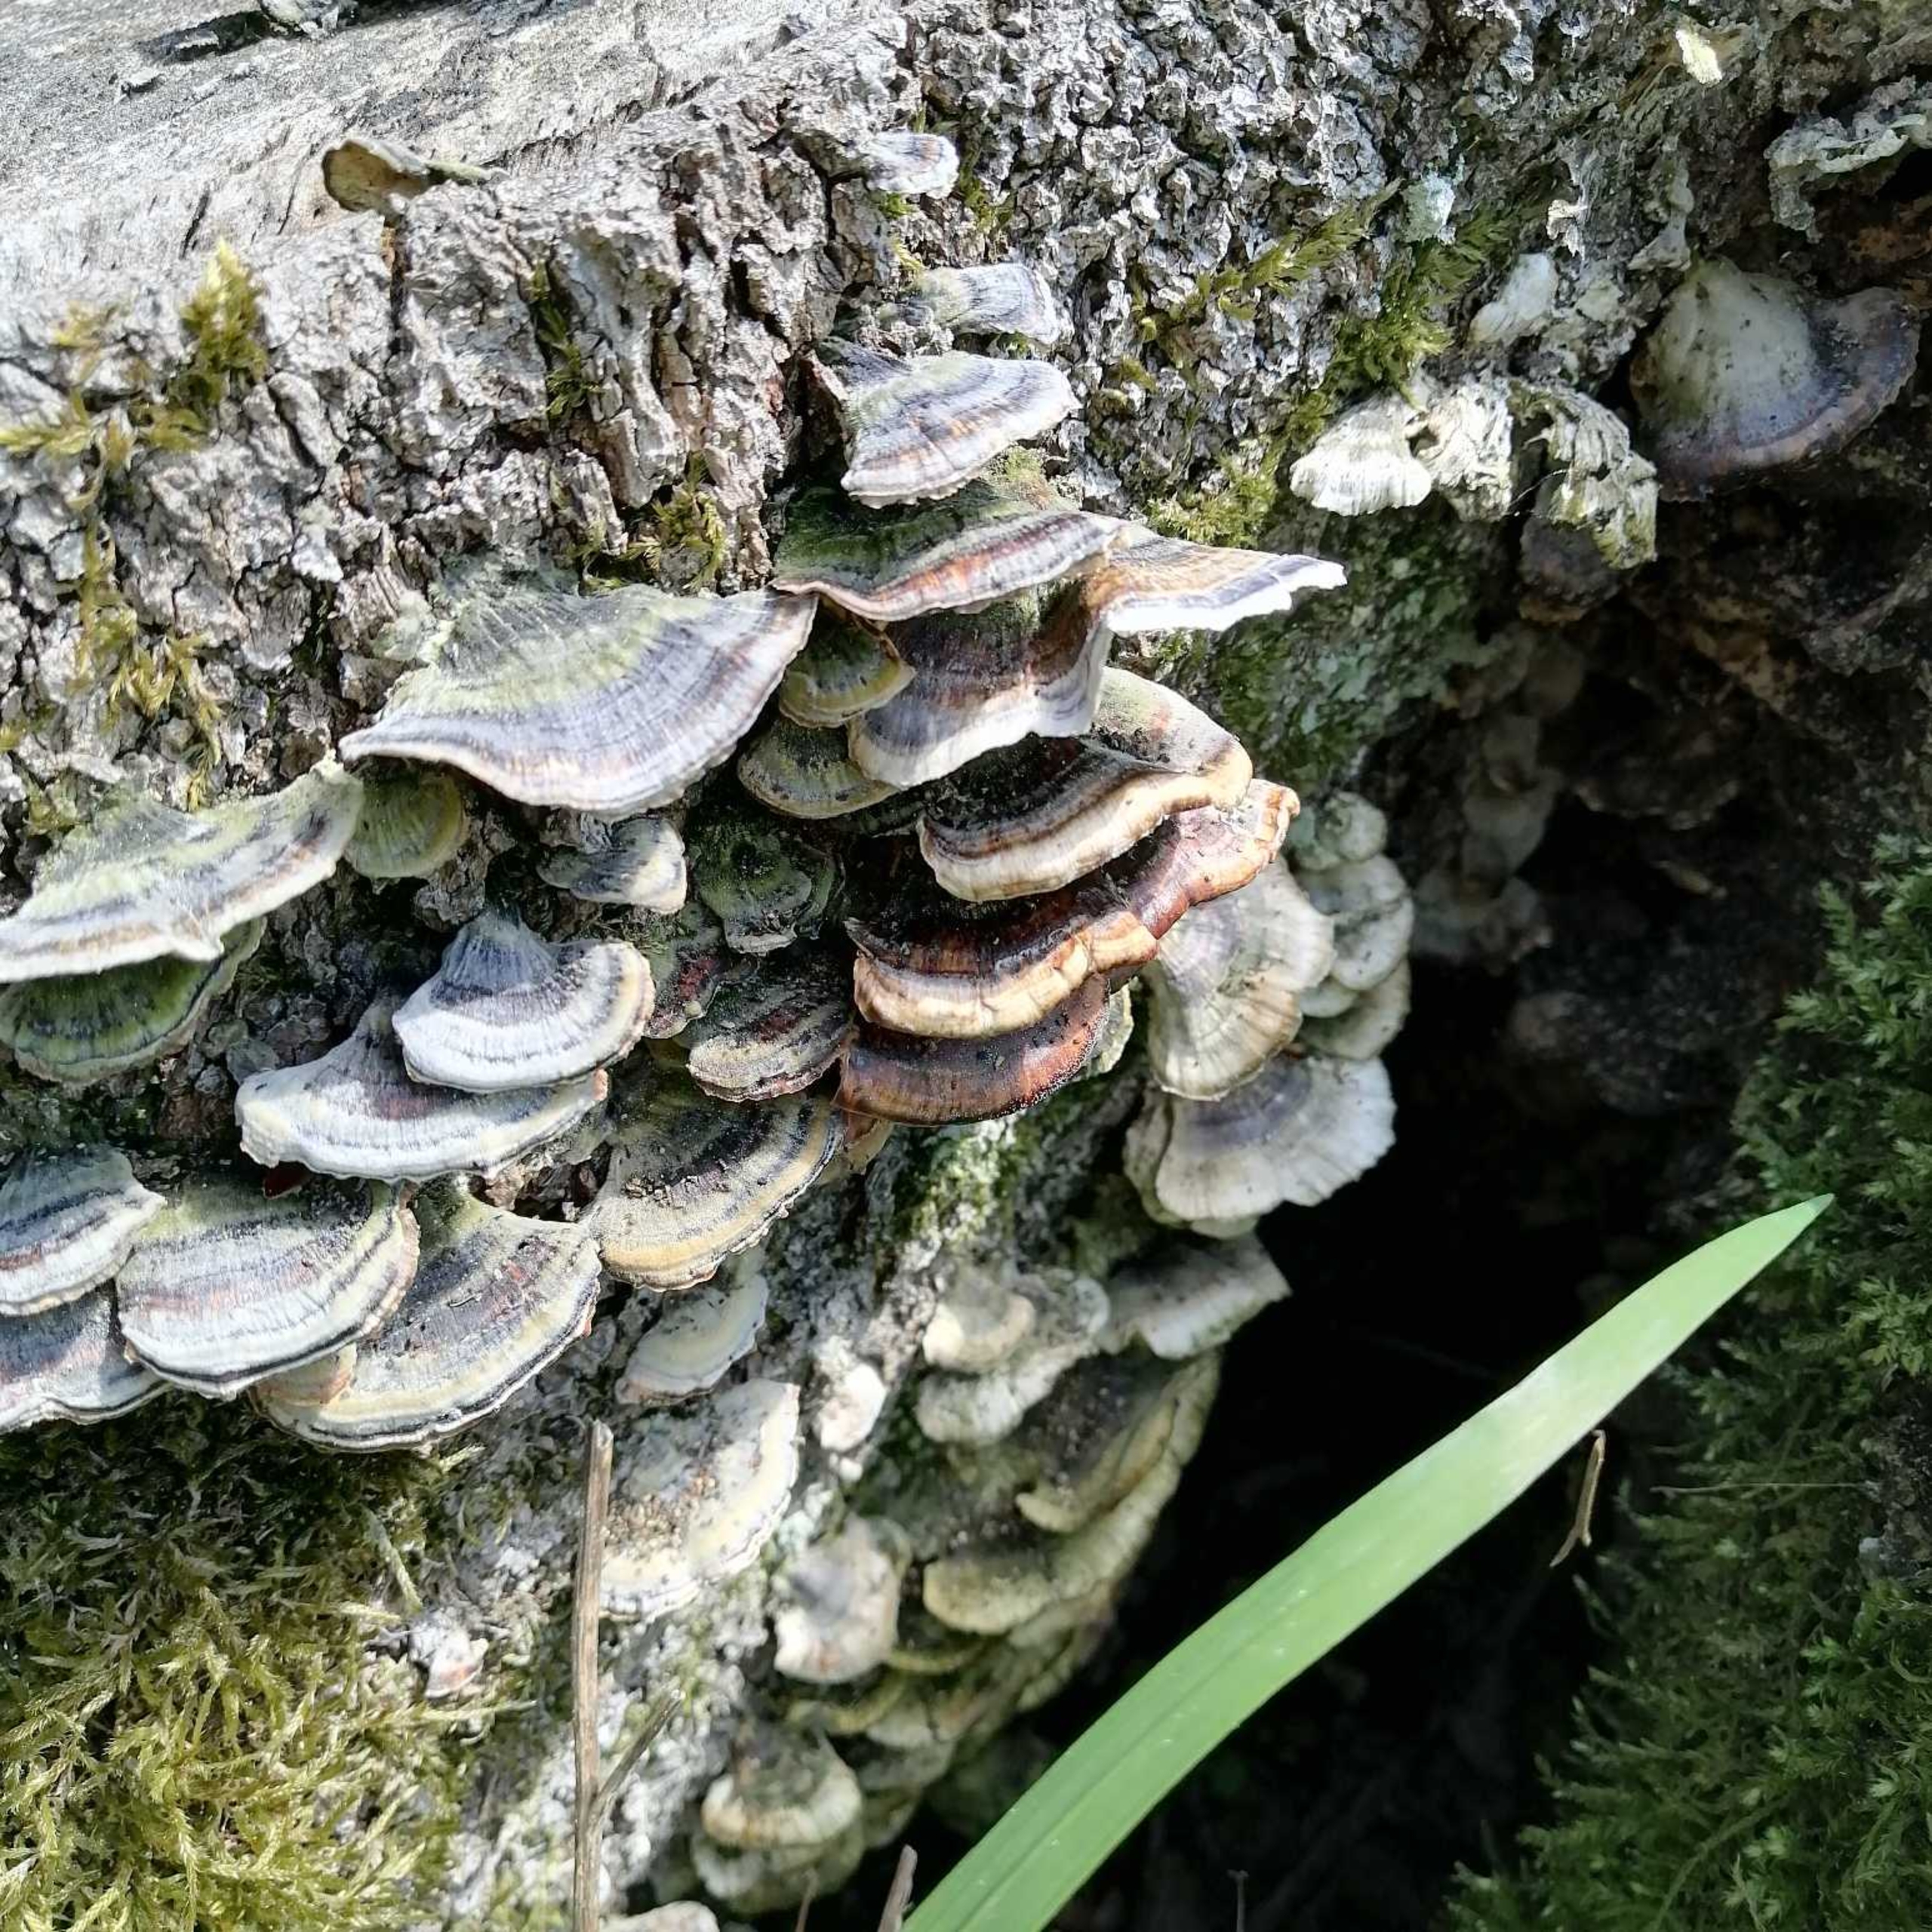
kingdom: Fungi
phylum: Basidiomycota
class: Agaricomycetes
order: Polyporales
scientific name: Polyporales
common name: Poresvampordenen
